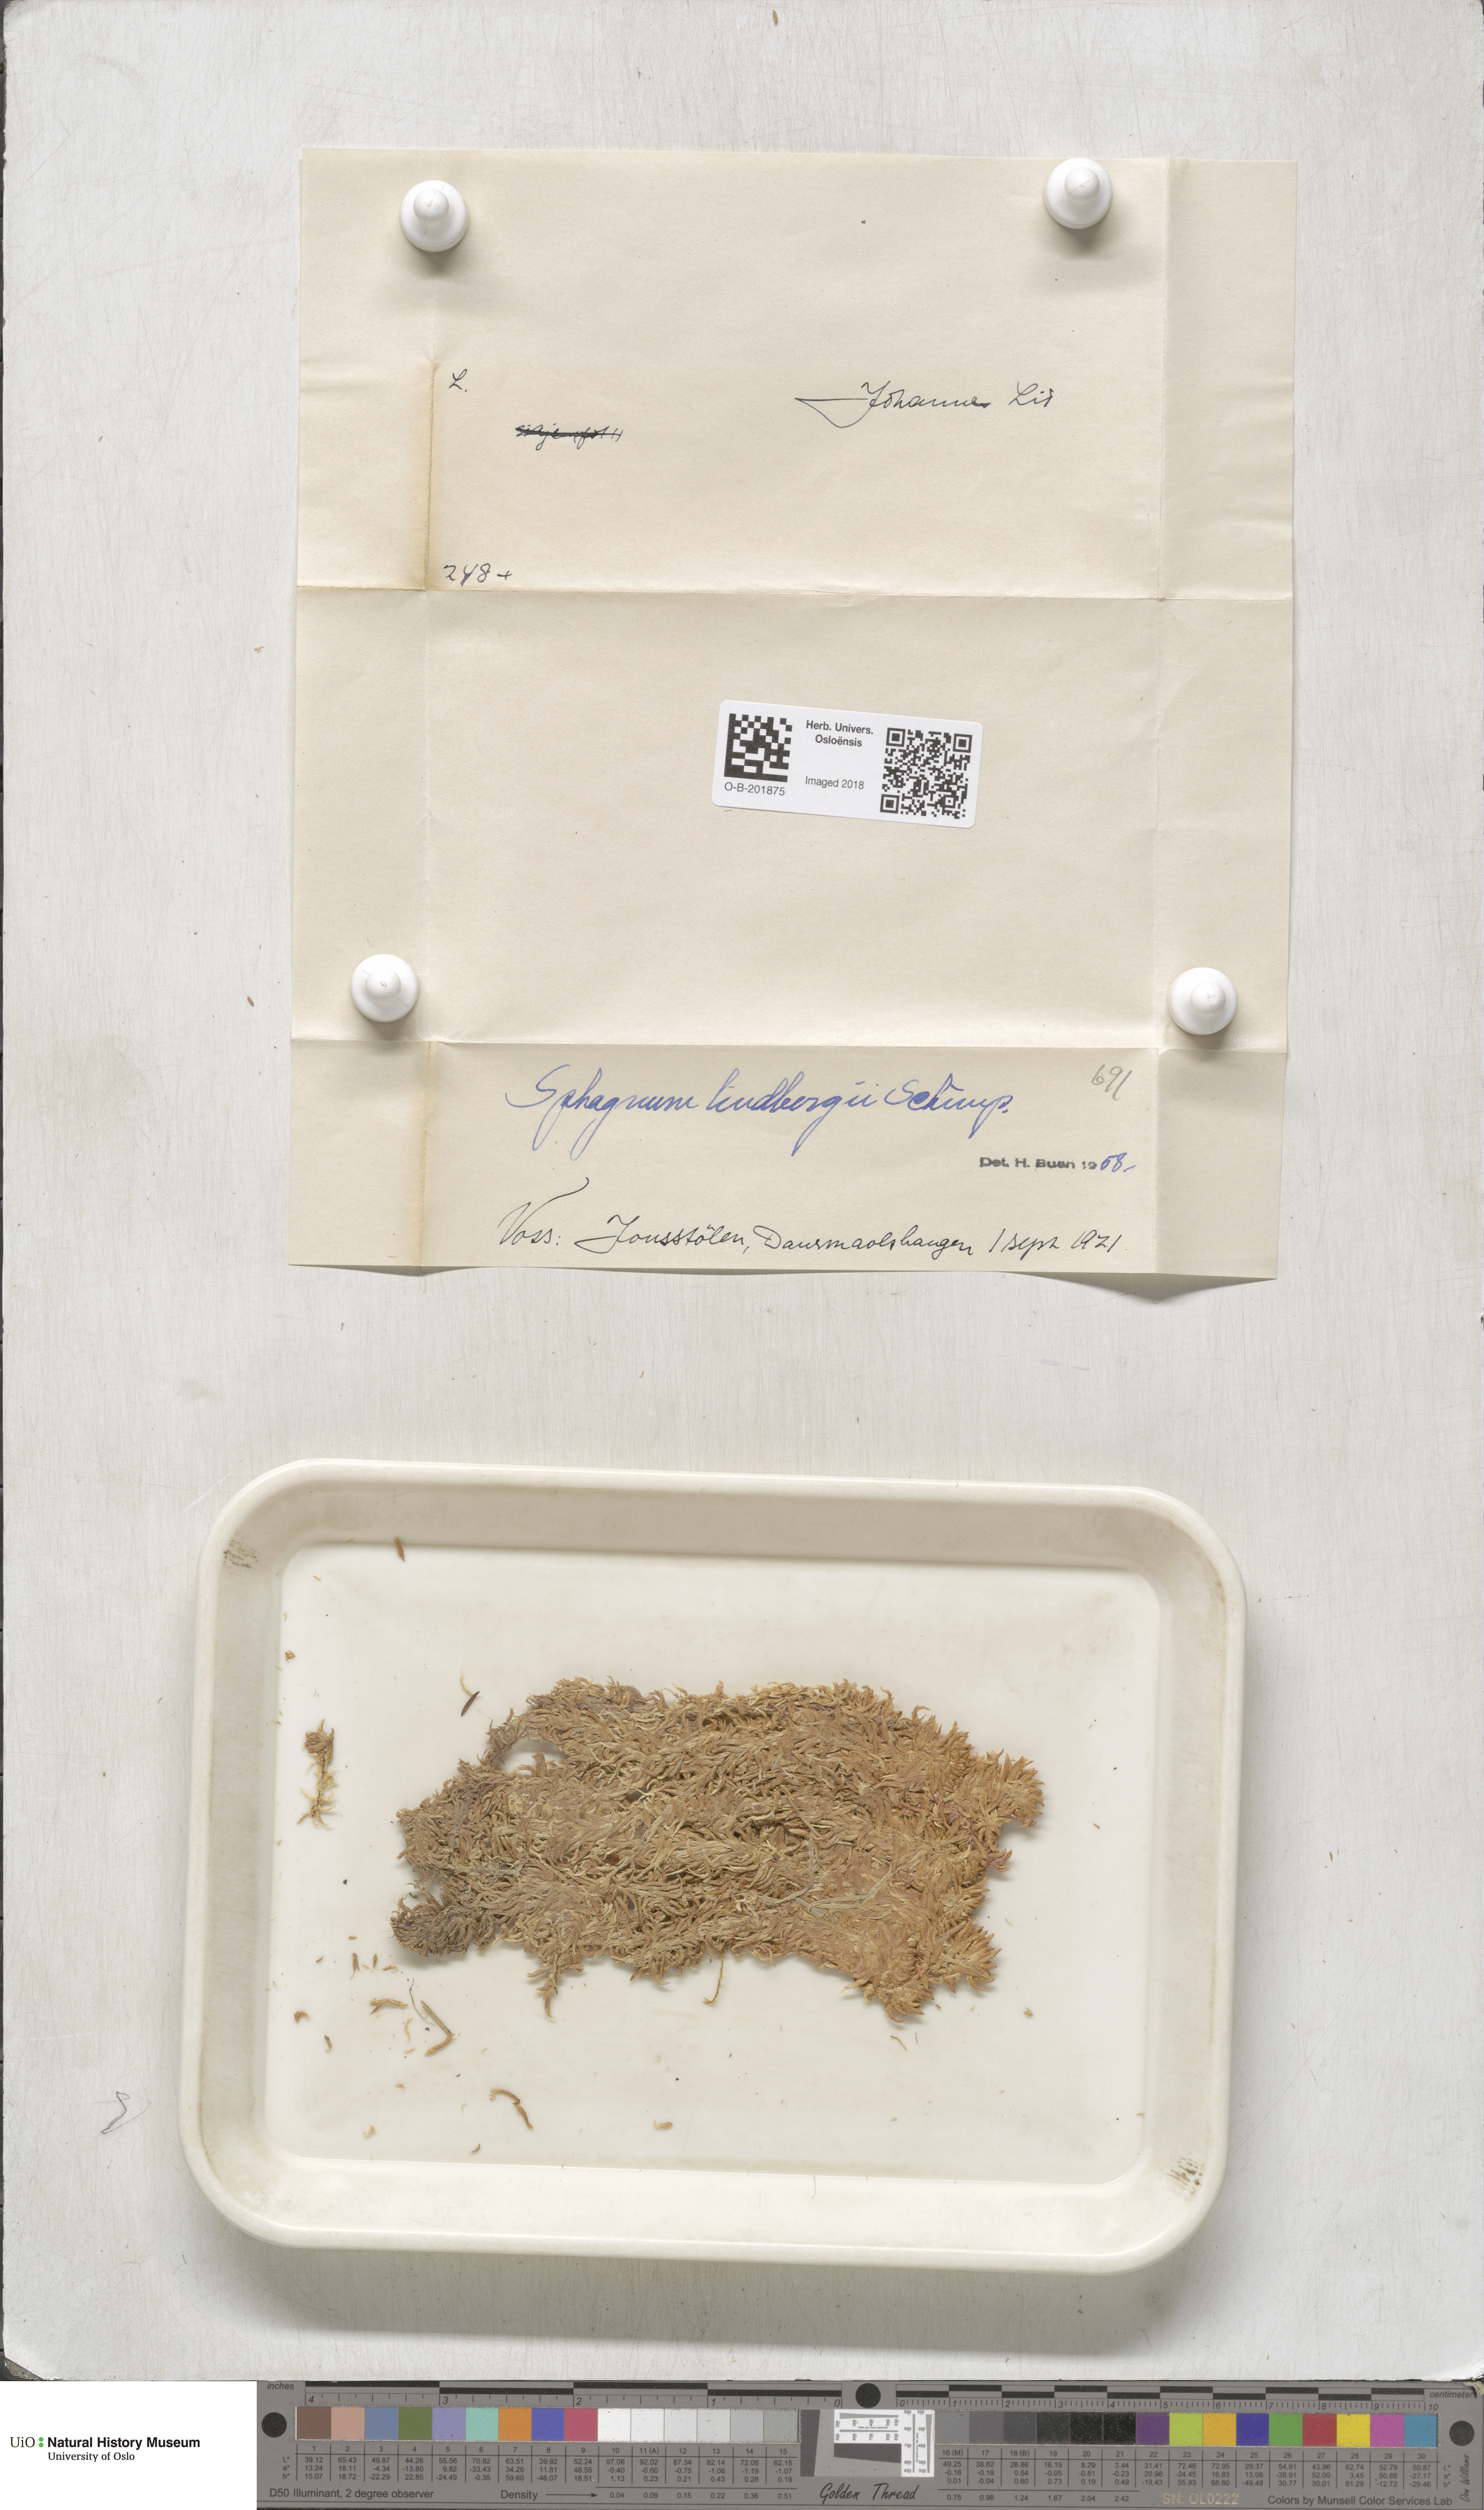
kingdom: Plantae
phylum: Bryophyta
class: Sphagnopsida
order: Sphagnales
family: Sphagnaceae
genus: Sphagnum
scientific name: Sphagnum lindbergii
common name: Lindberg's peat moss
